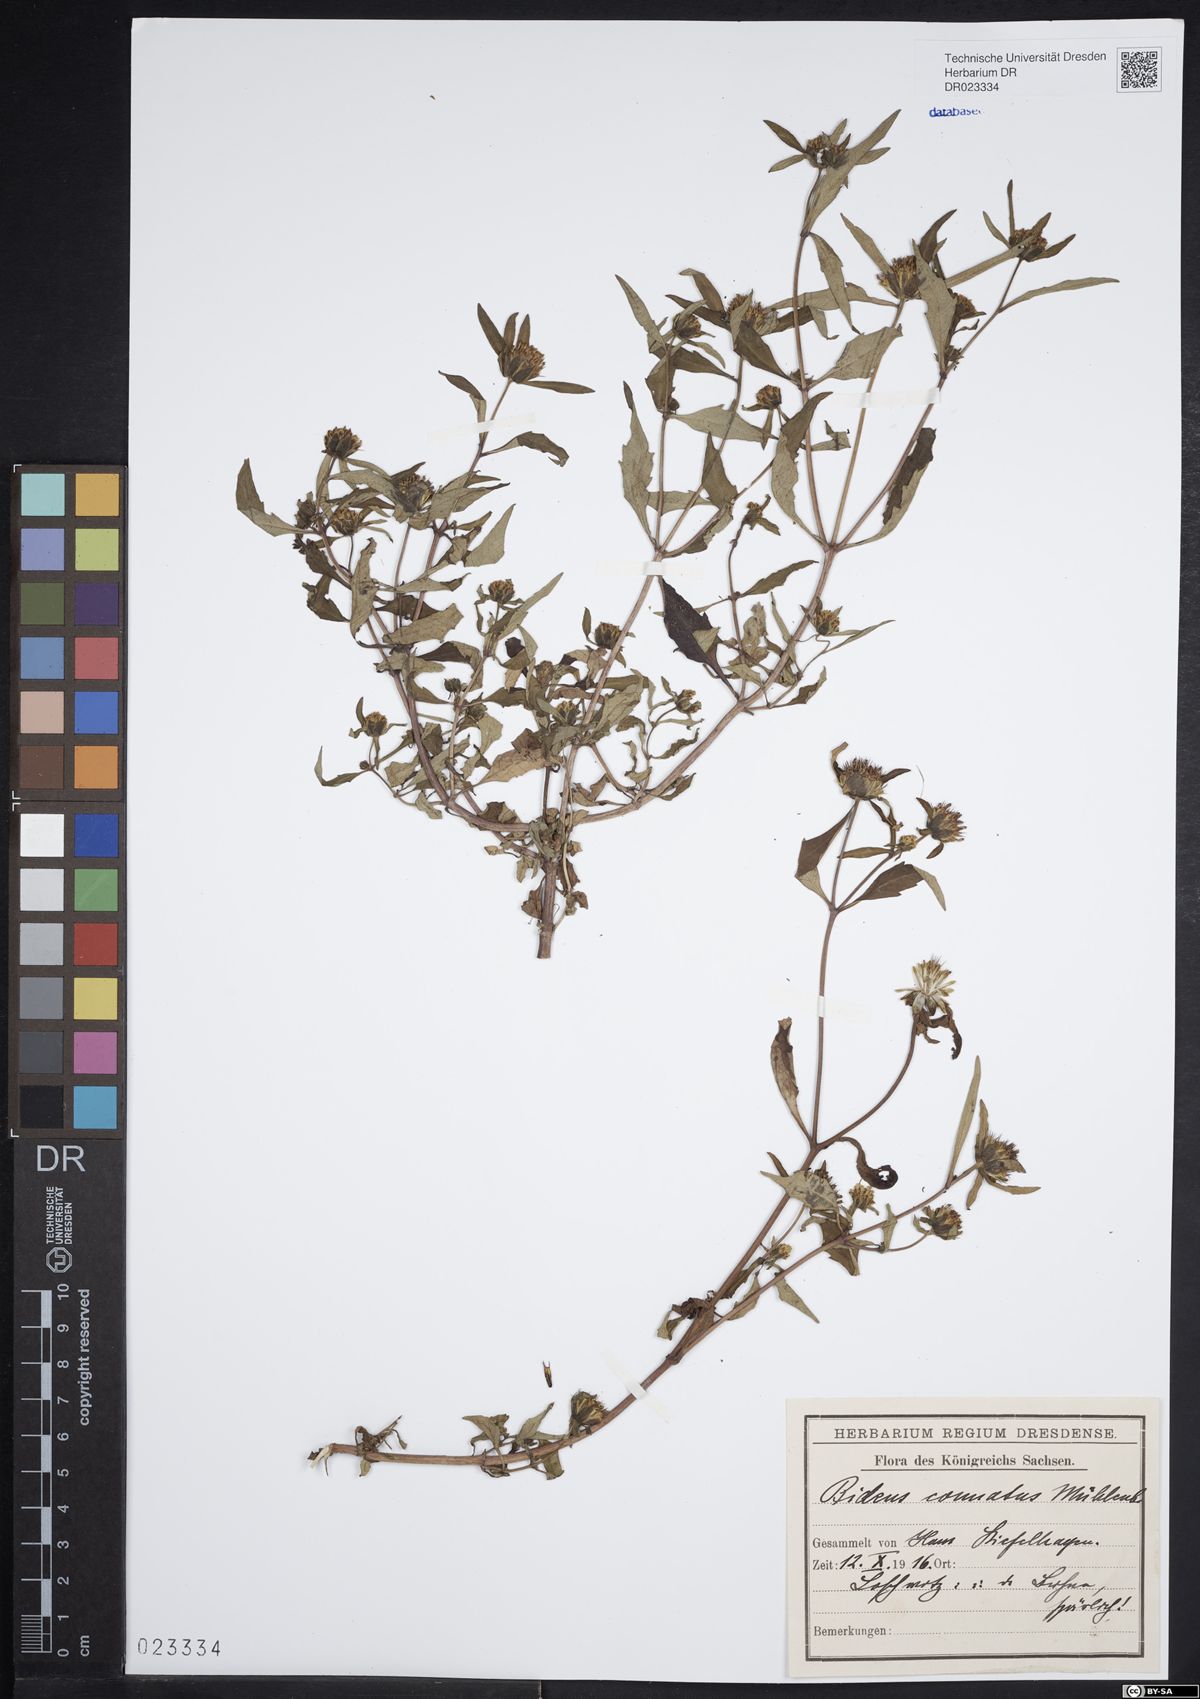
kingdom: Plantae
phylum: Tracheophyta
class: Magnoliopsida
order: Asterales
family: Asteraceae
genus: Bidens
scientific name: Bidens connata
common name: London bur-marigold
